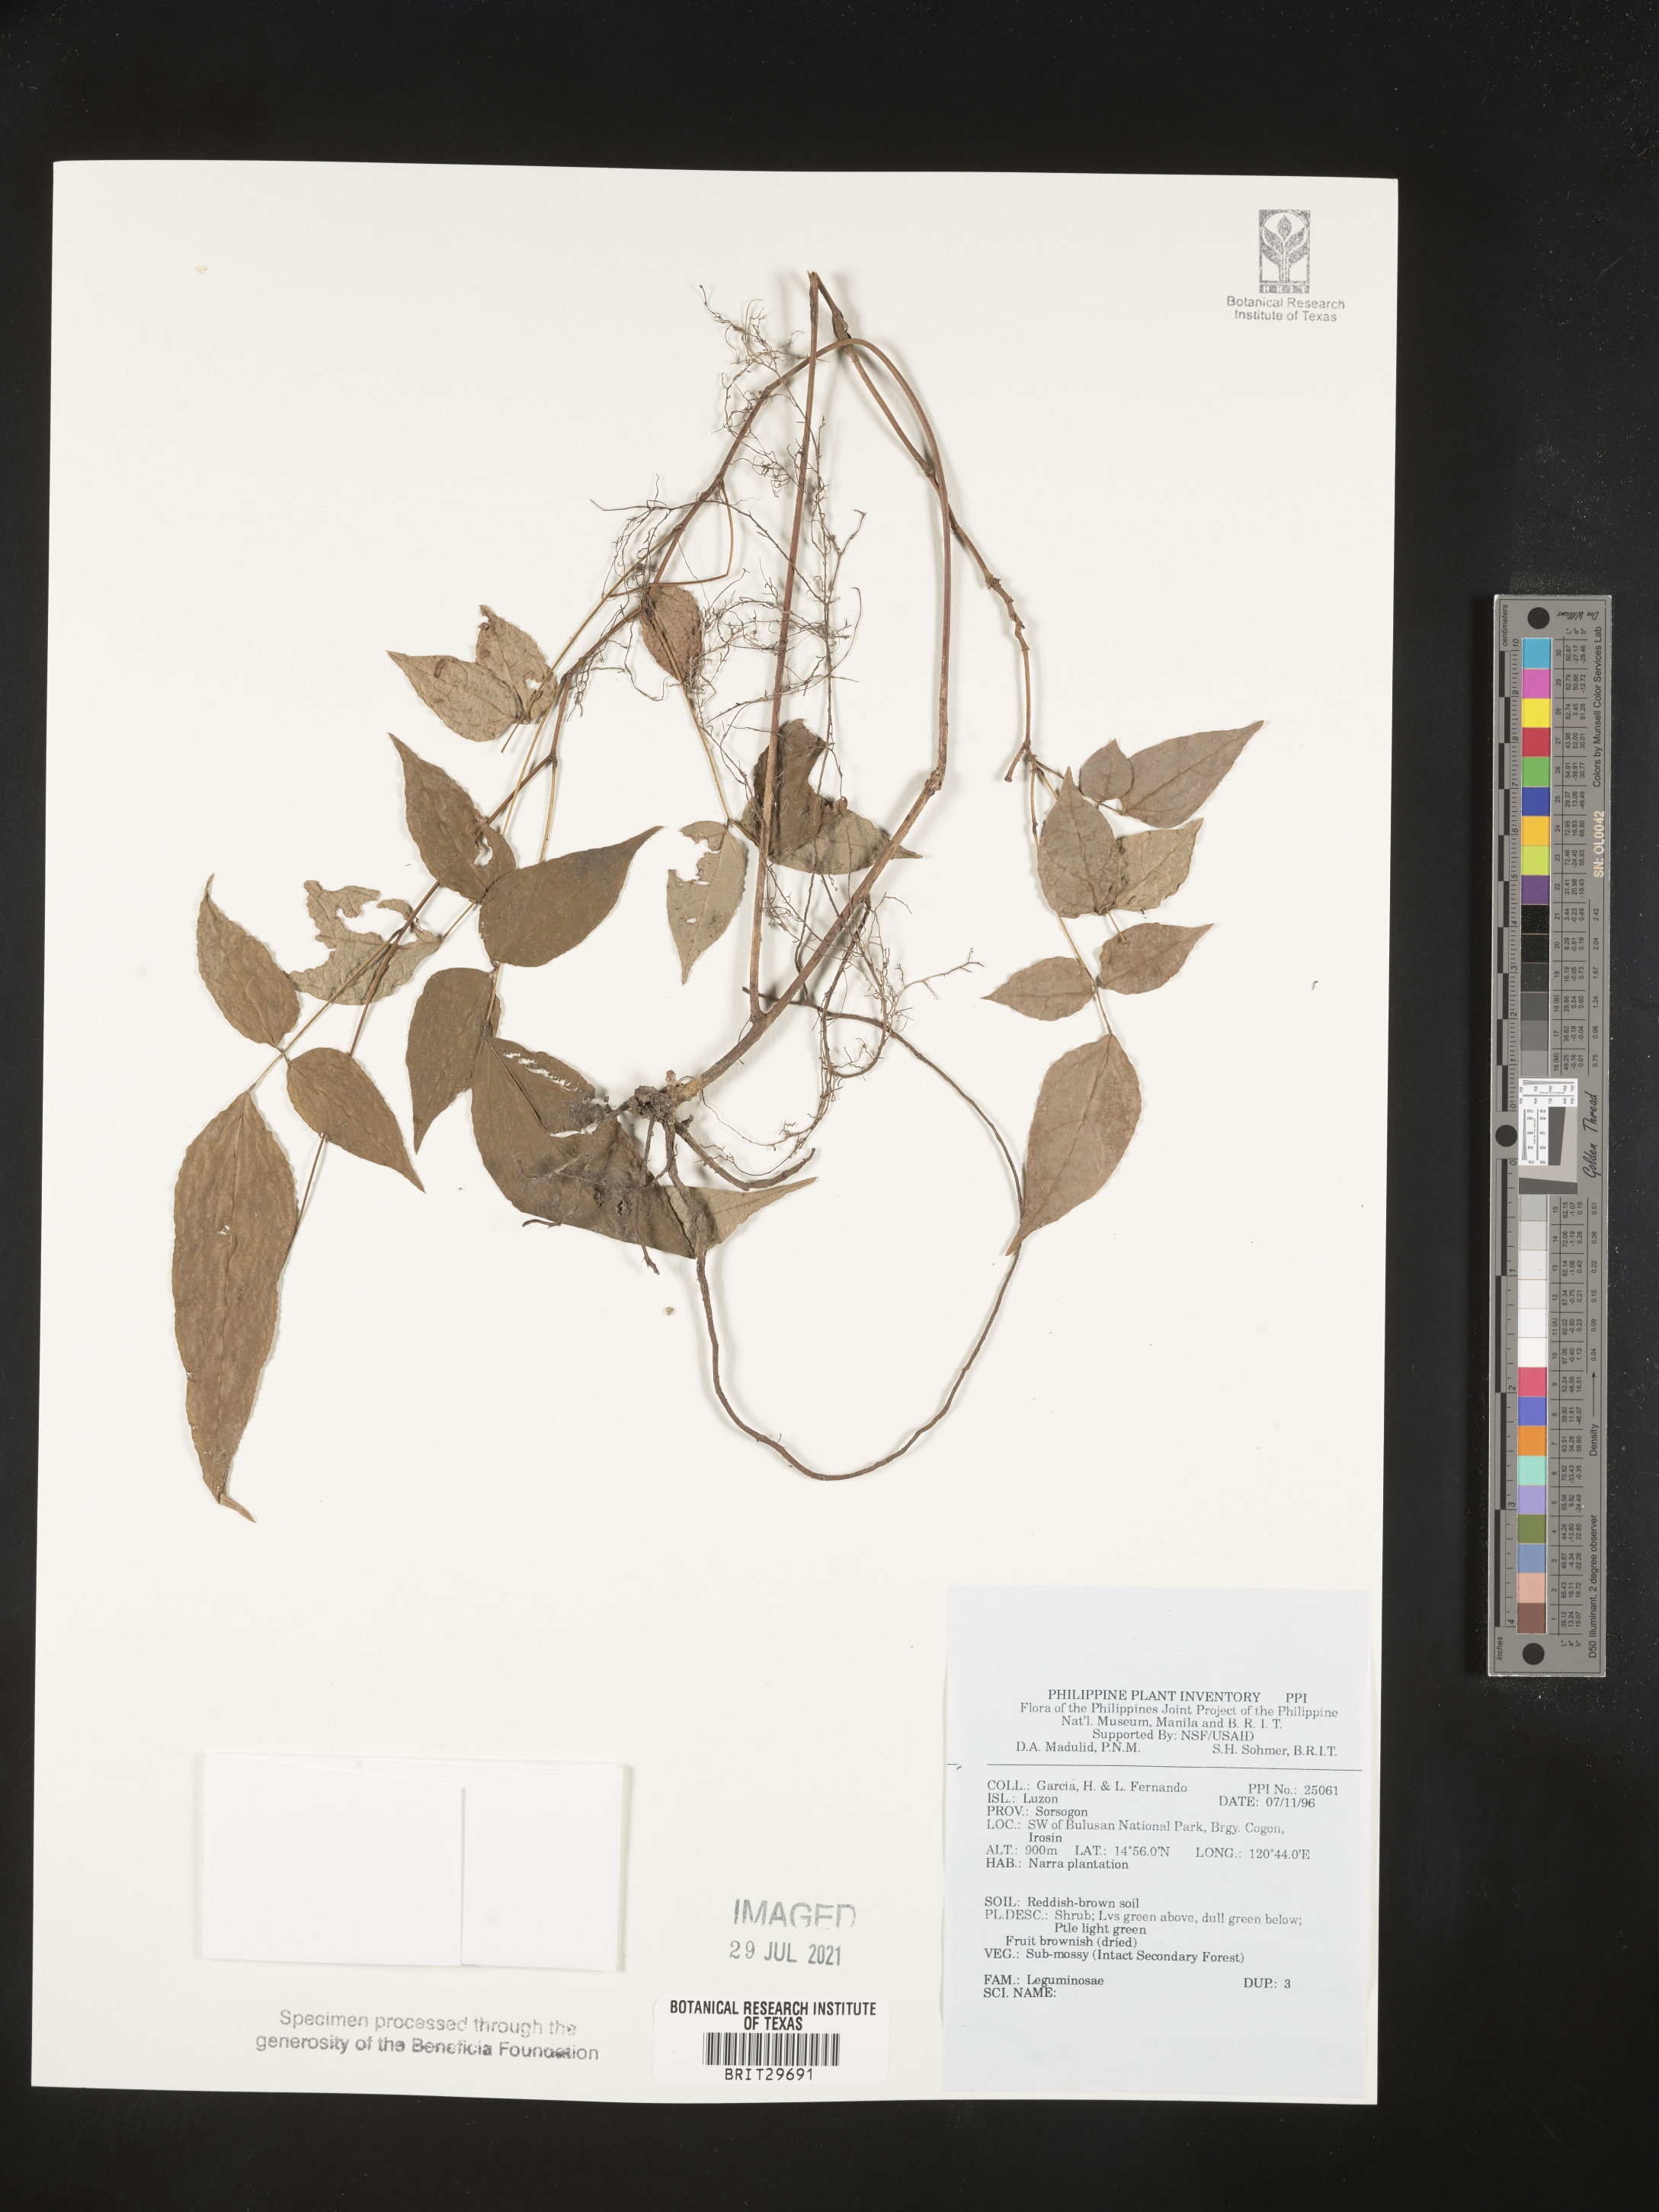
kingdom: Plantae
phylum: Tracheophyta
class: Magnoliopsida
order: Fabales
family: Fabaceae
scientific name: Fabaceae
